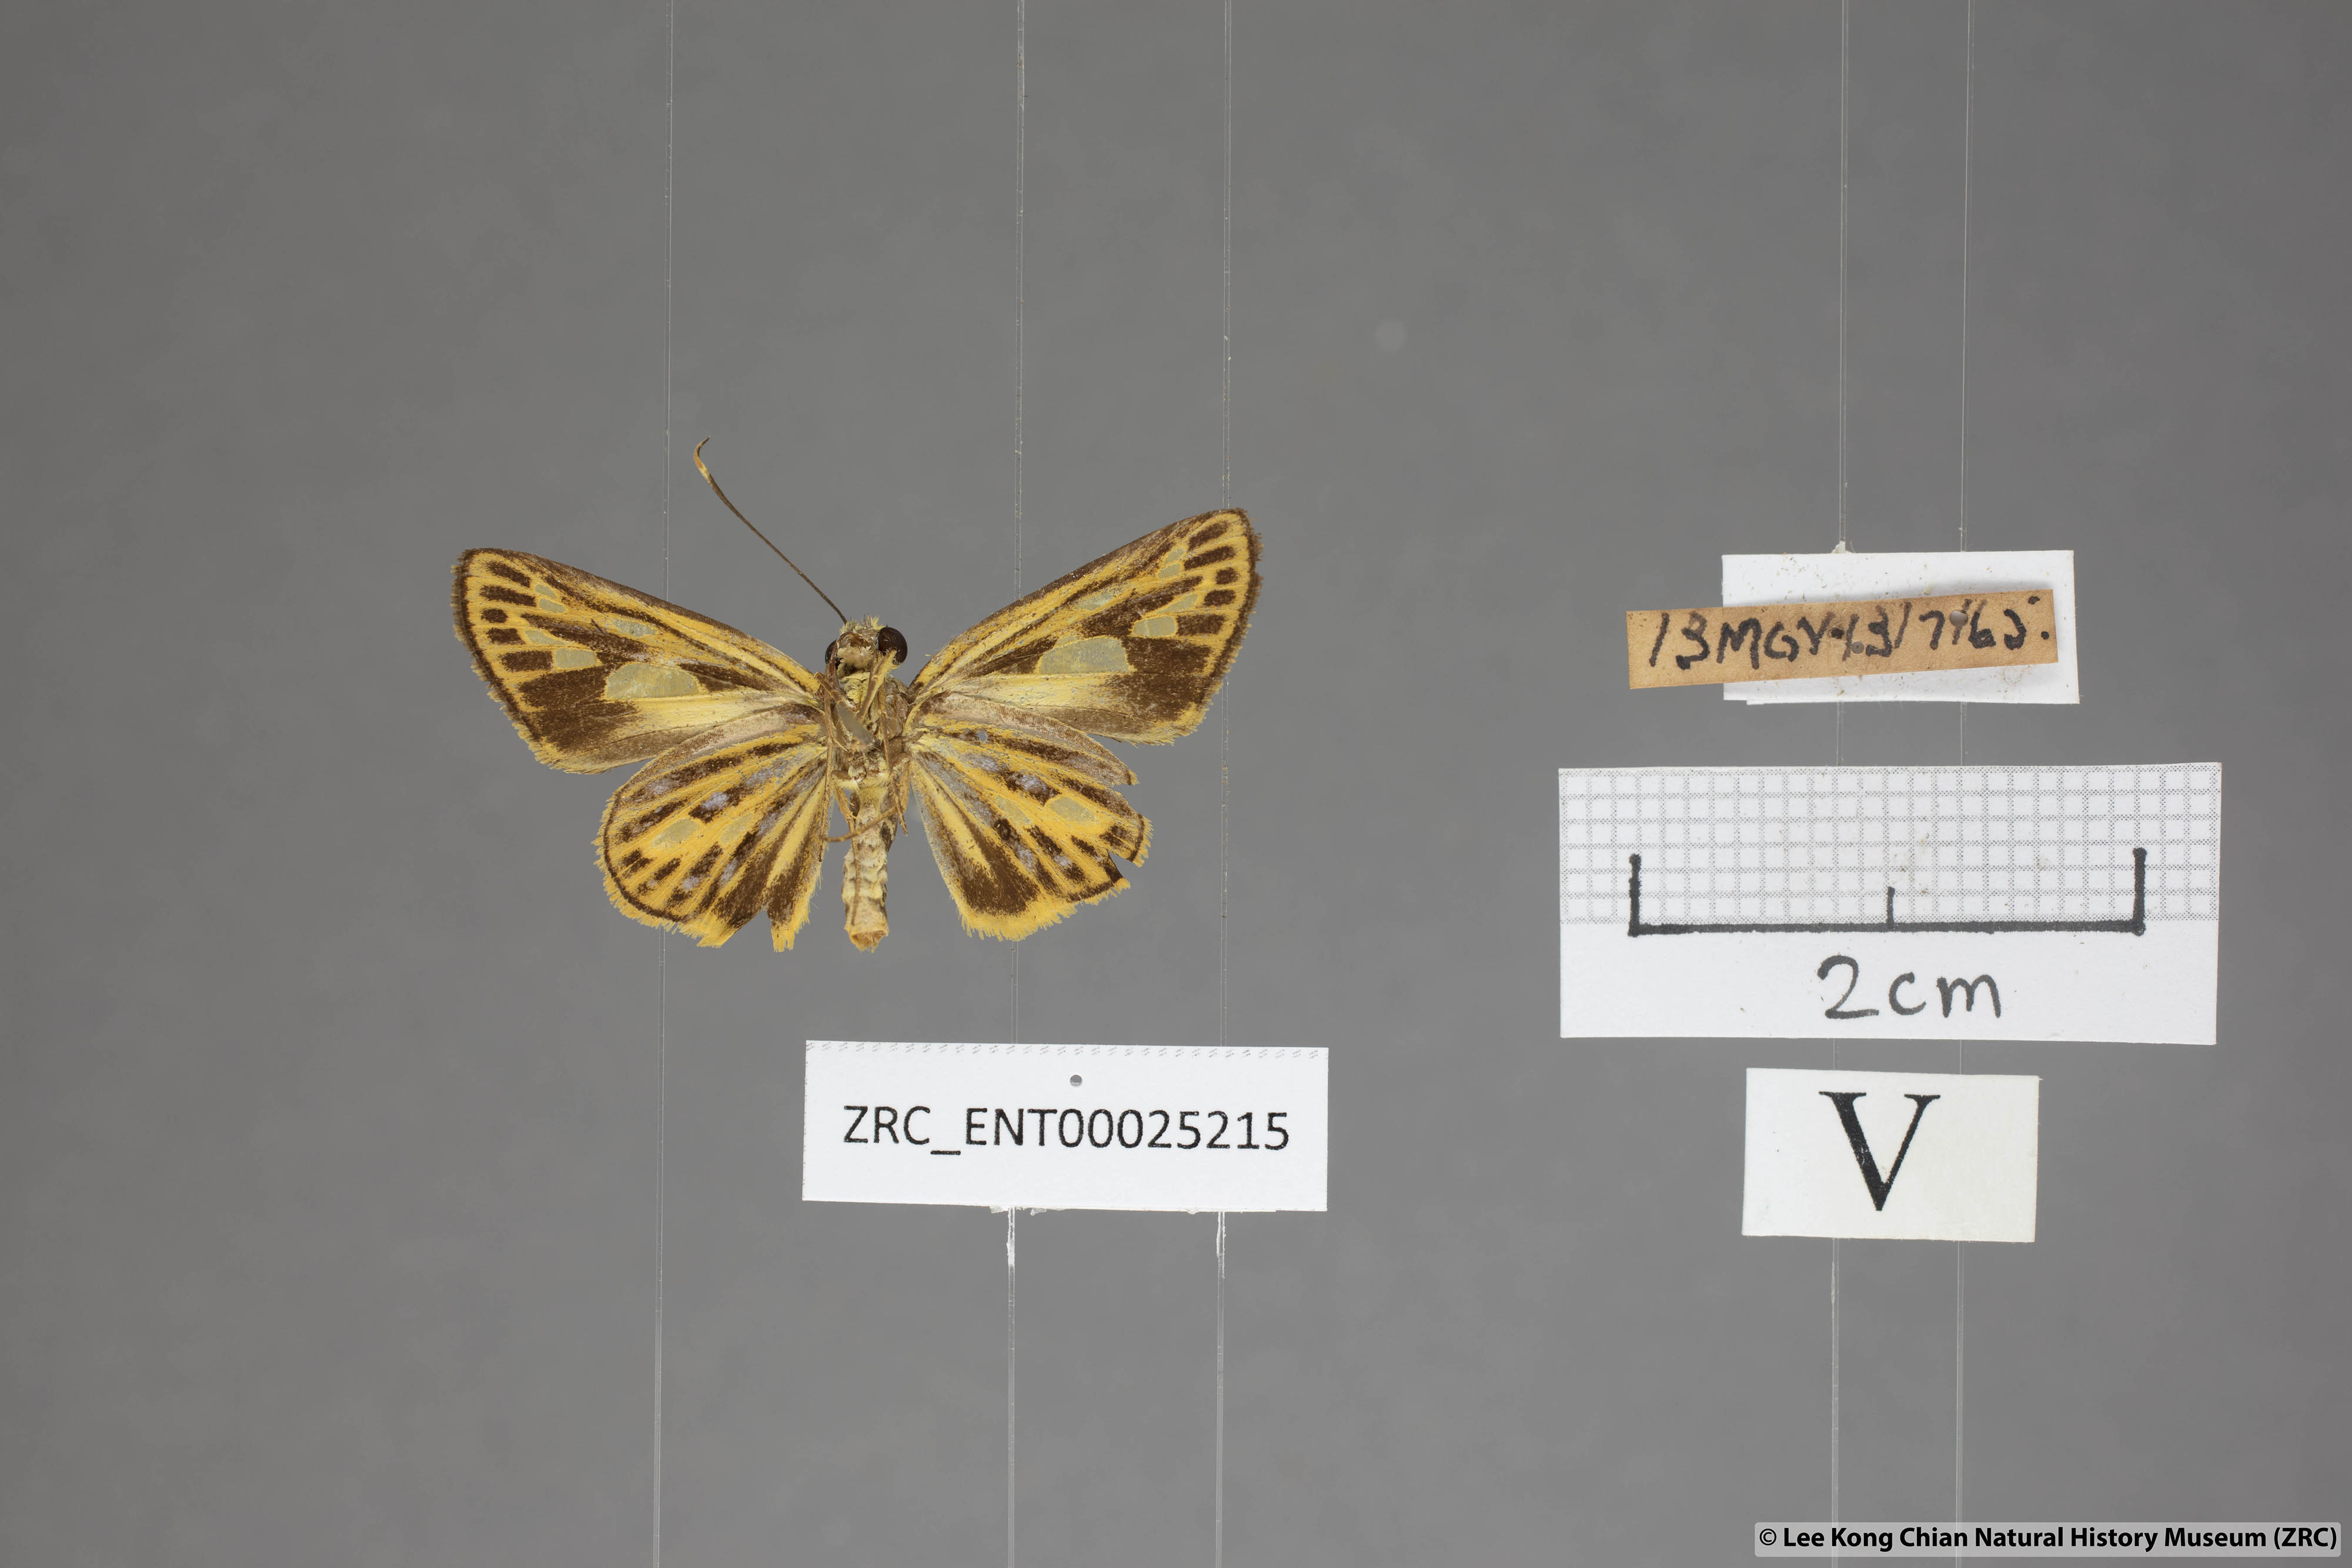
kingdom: Animalia
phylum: Arthropoda
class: Insecta
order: Lepidoptera
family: Hesperiidae
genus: Pyroneura
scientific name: Pyroneura flavia
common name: Lesser lancer
